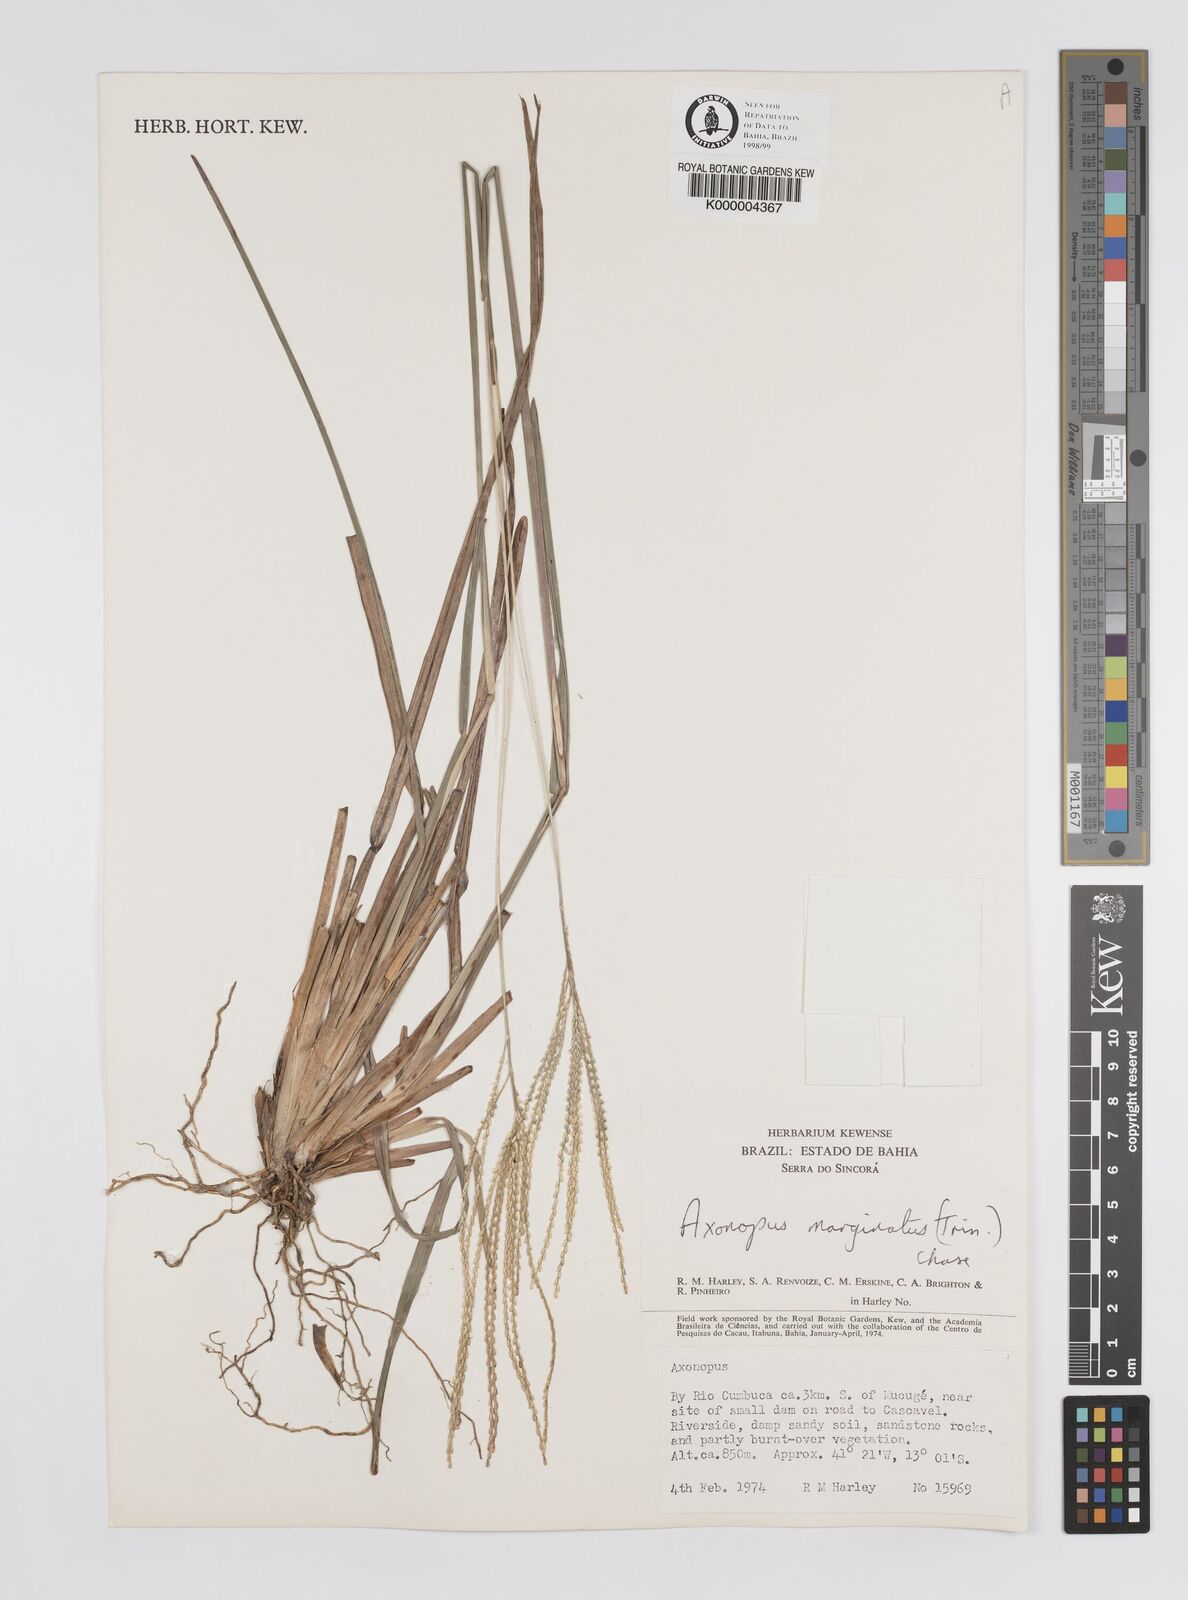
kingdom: Plantae
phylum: Tracheophyta
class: Liliopsida
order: Poales
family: Poaceae
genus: Axonopus
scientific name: Axonopus
